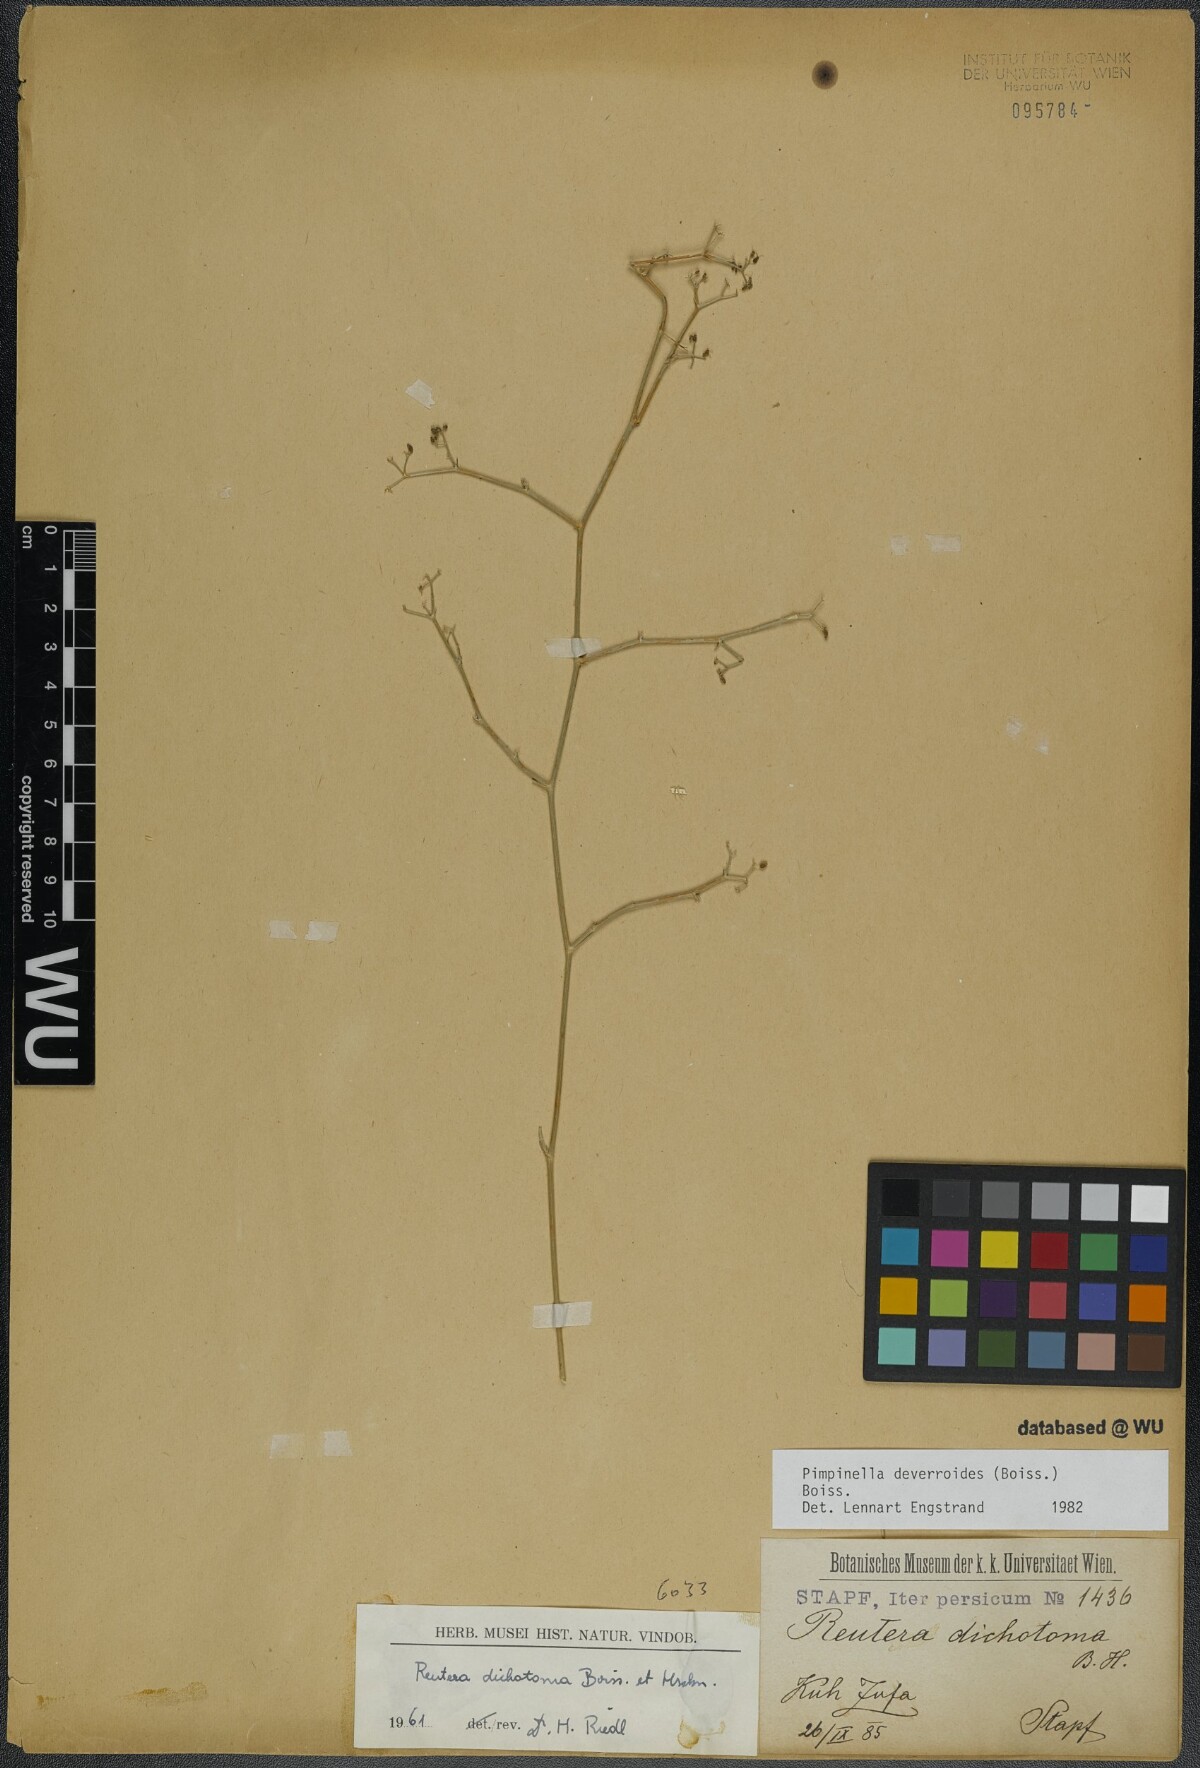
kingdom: Plantae
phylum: Tracheophyta
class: Magnoliopsida
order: Apiales
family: Apiaceae
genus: Pimpinella
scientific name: Pimpinella deverroides
